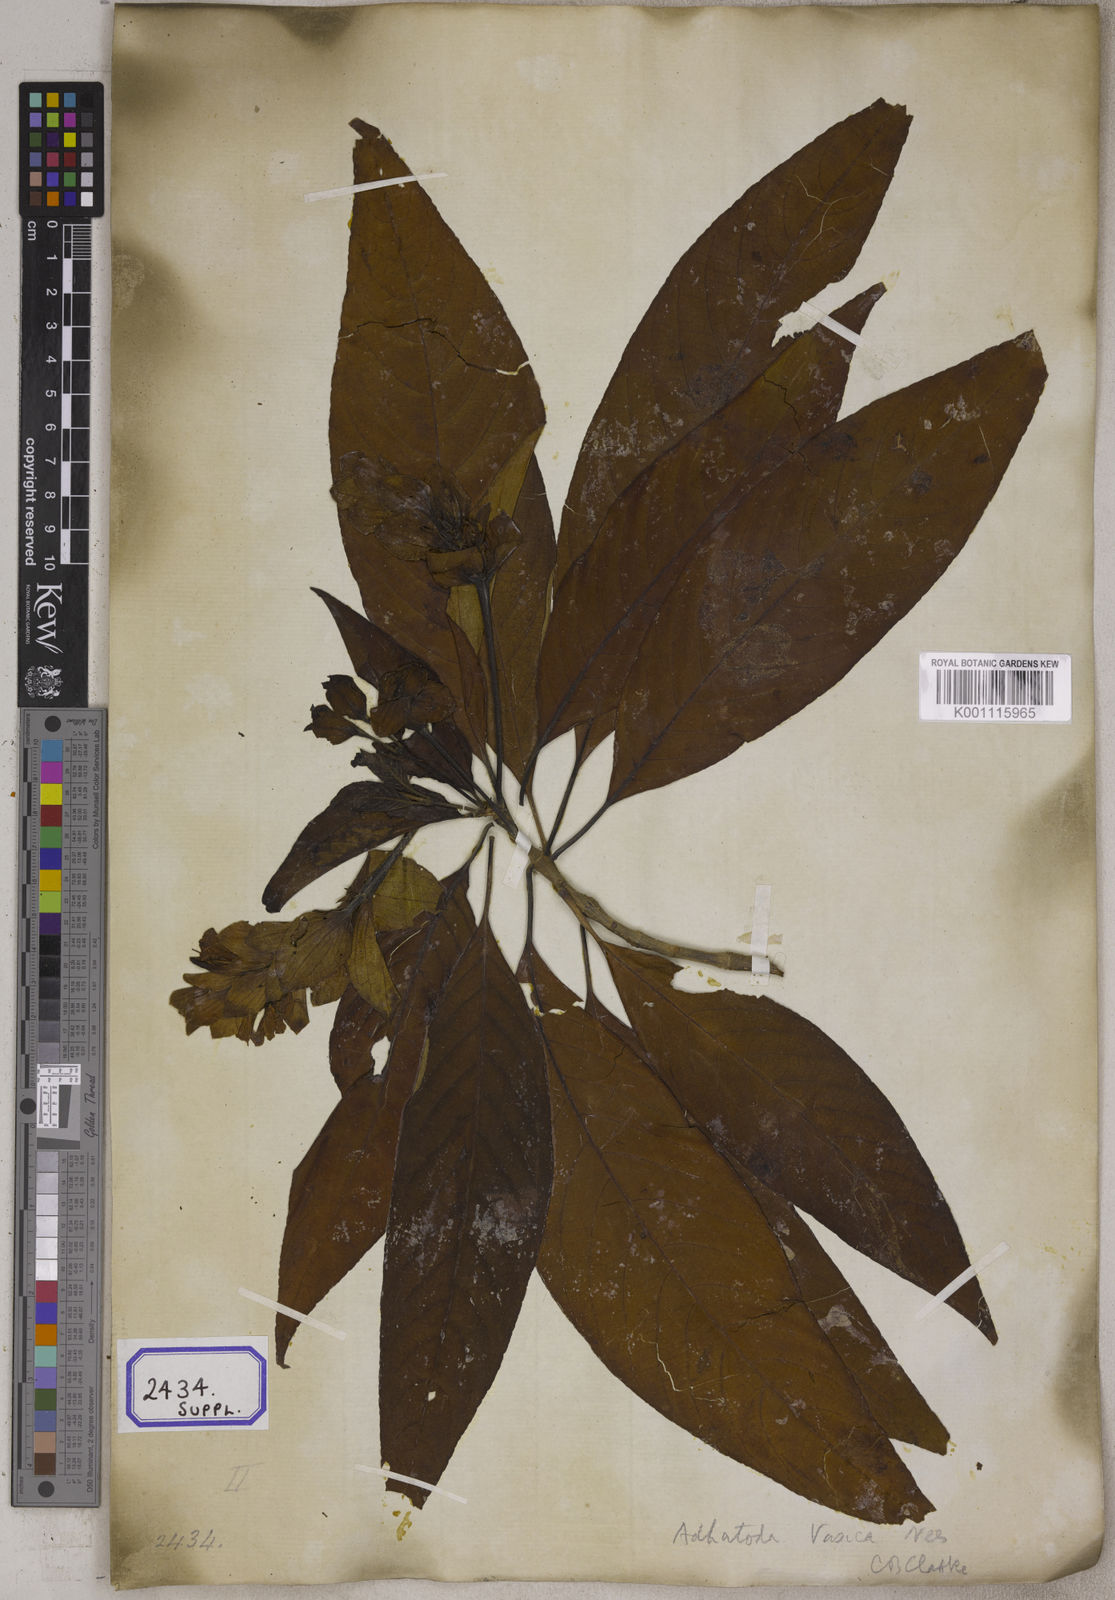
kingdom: Plantae
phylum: Tracheophyta
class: Magnoliopsida
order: Lamiales
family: Acanthaceae
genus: Justicia
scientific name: Justicia adhatoda
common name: Malabar nut
